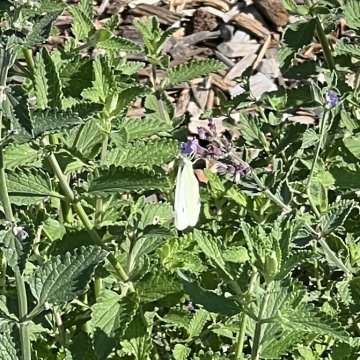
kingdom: Animalia
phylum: Arthropoda
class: Insecta
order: Lepidoptera
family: Pieridae
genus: Pieris
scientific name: Pieris rapae
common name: Cabbage White
